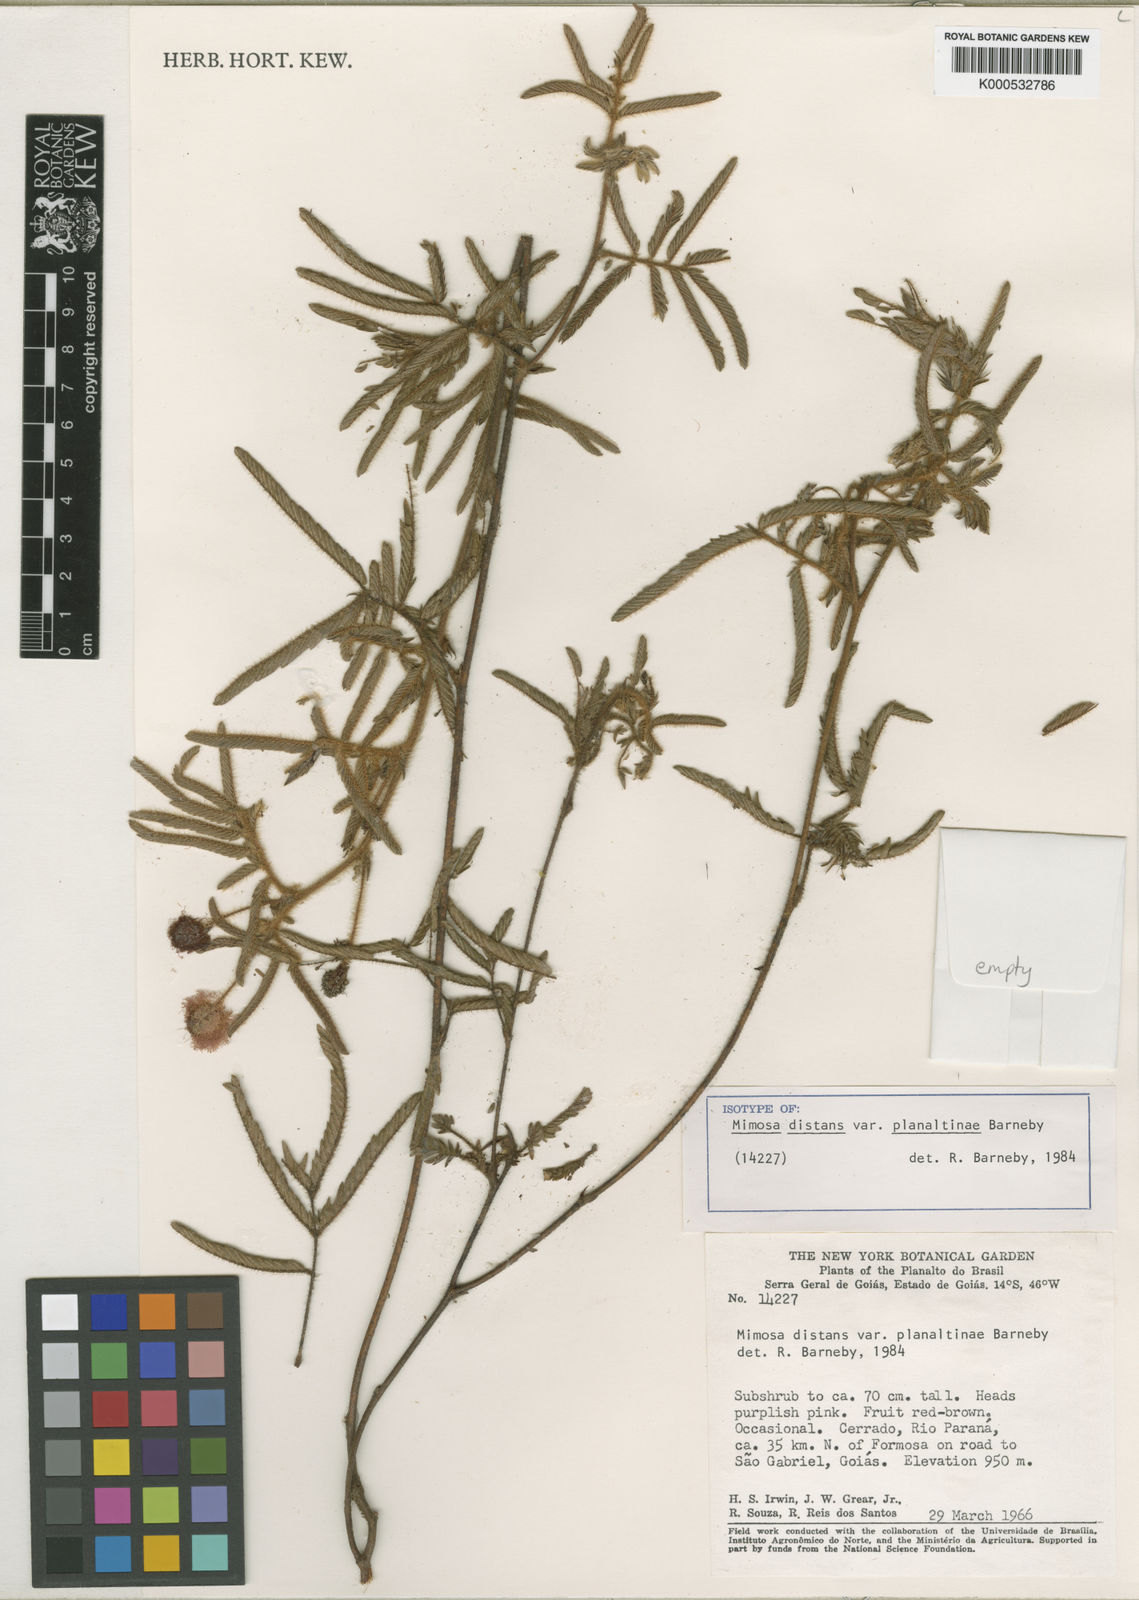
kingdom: Plantae
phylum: Tracheophyta
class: Magnoliopsida
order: Fabales
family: Fabaceae
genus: Mimosa
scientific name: Mimosa distans
